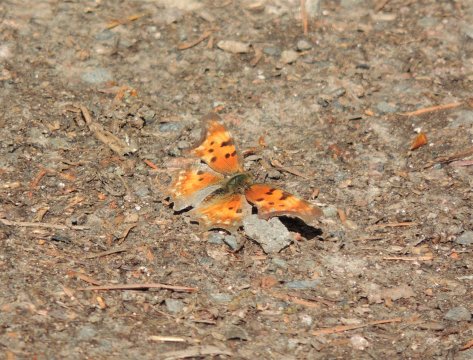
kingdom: Animalia
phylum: Arthropoda
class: Insecta
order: Lepidoptera
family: Nymphalidae
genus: Polygonia
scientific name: Polygonia gracilis
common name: Hoary Comma
